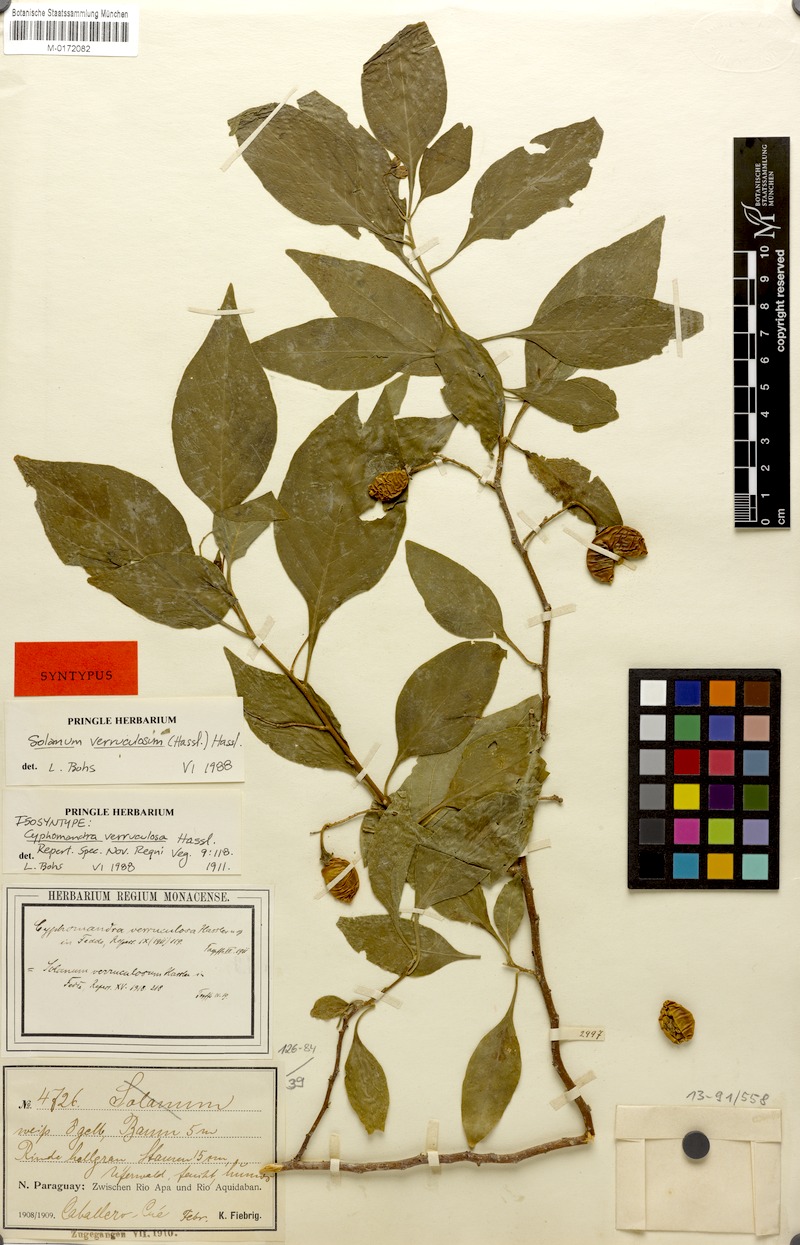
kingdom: Plantae
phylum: Tracheophyta
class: Magnoliopsida
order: Solanales
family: Solanaceae
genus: Solanum
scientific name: Solanum corumbense
